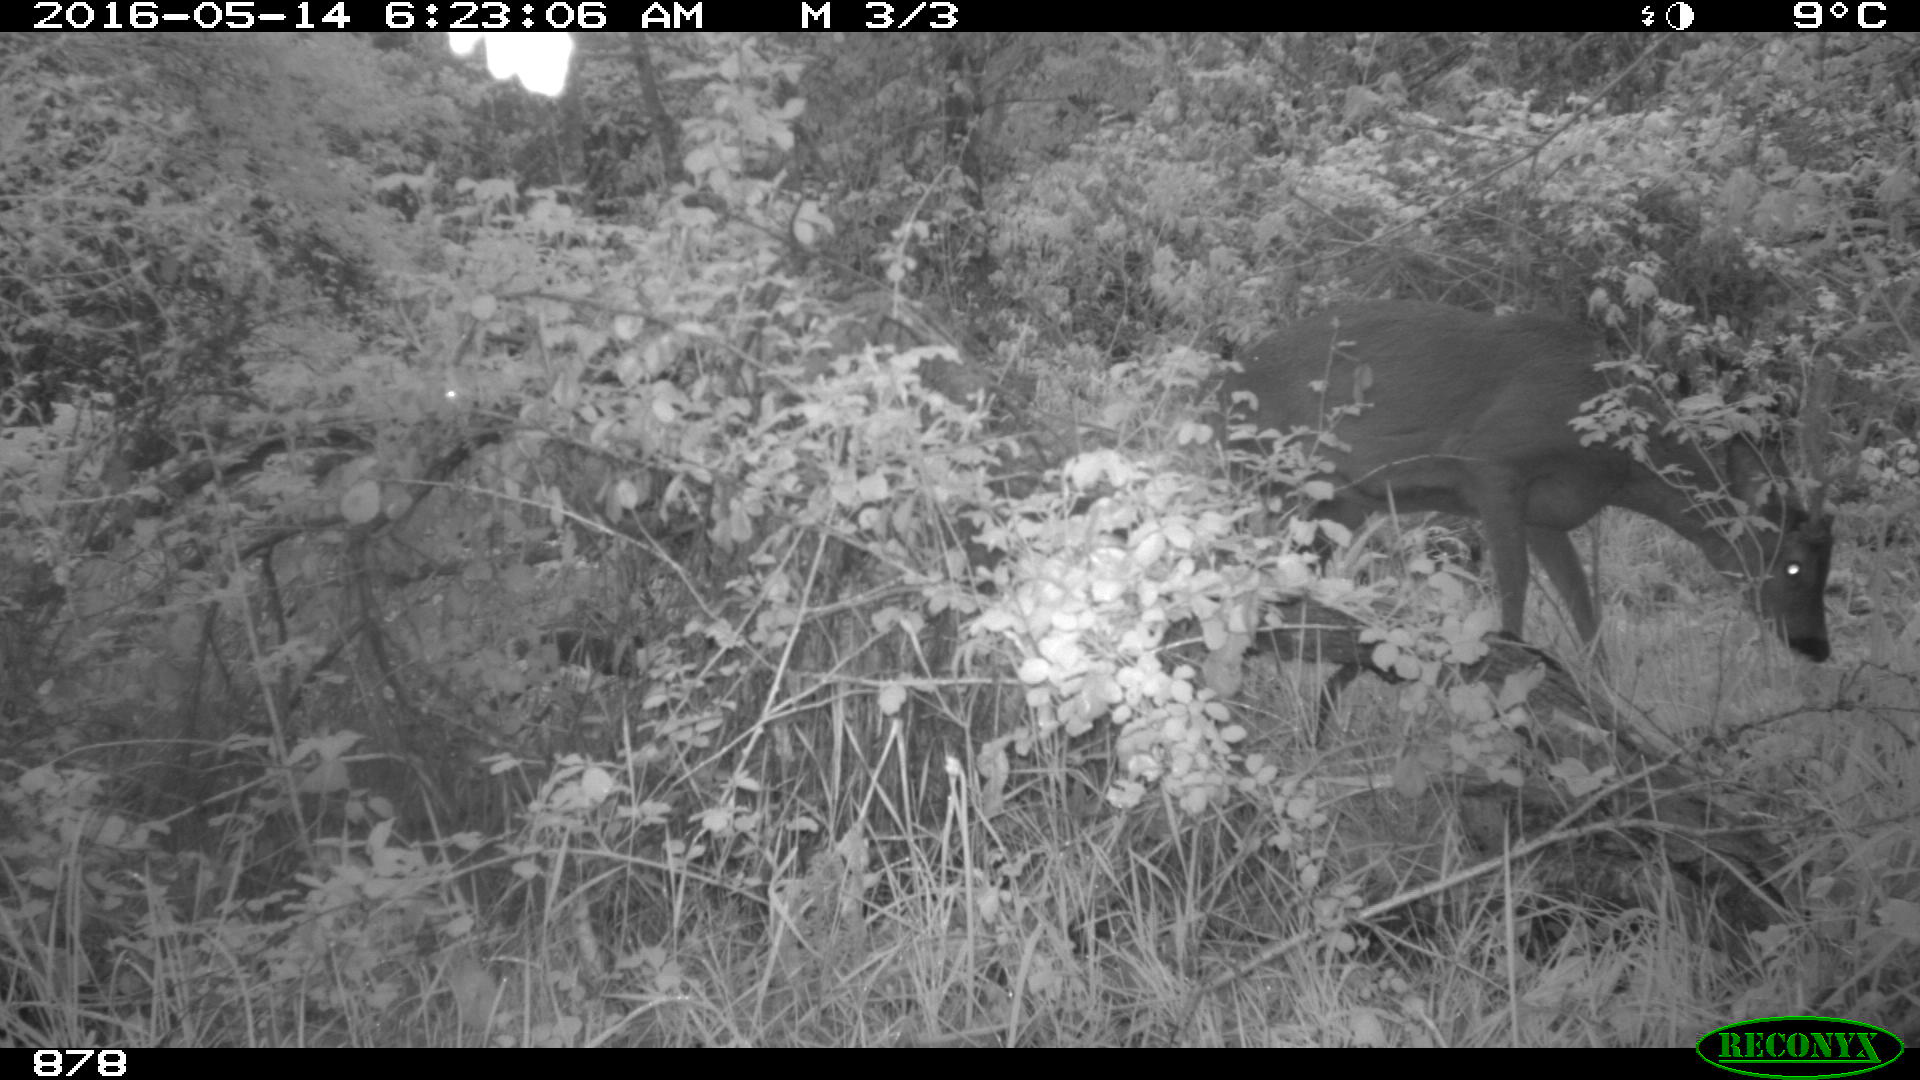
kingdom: Animalia
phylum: Chordata
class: Mammalia
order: Artiodactyla
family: Cervidae
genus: Capreolus
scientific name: Capreolus capreolus
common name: Western roe deer
